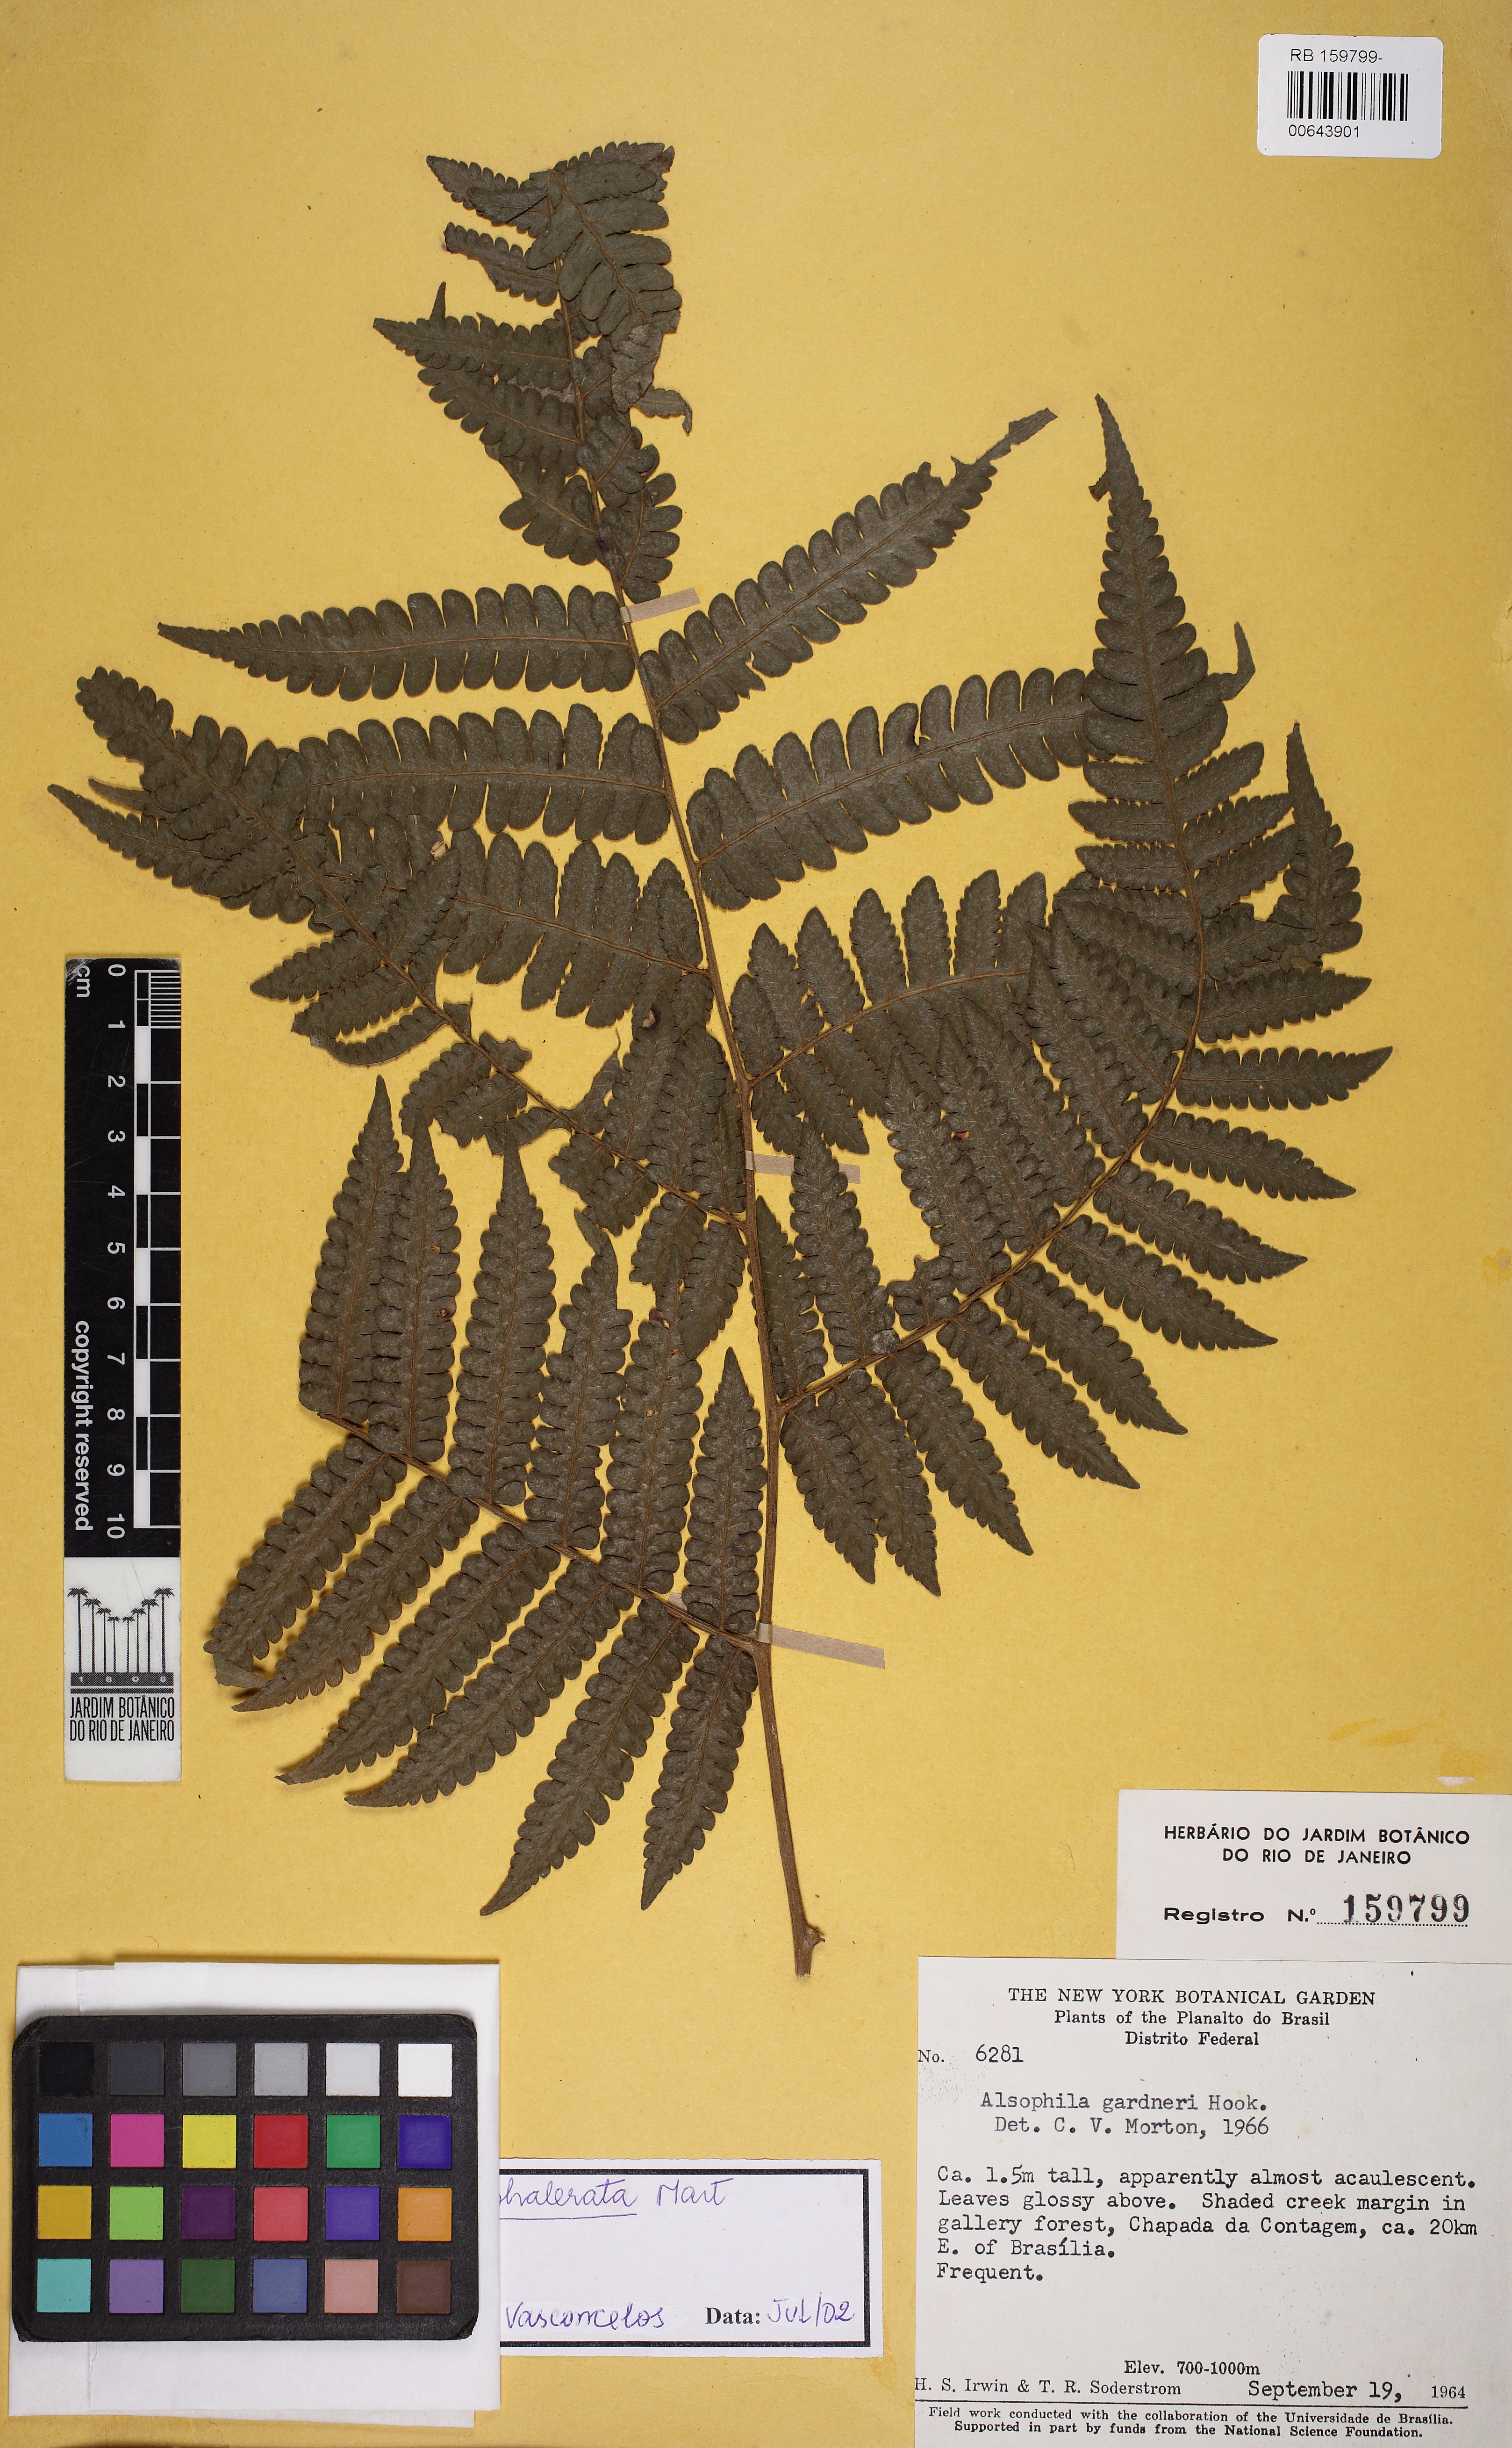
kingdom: Plantae
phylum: Tracheophyta
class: Polypodiopsida
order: Cyatheales
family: Cyatheaceae
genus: Cyathea
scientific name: Cyathea phalerata
